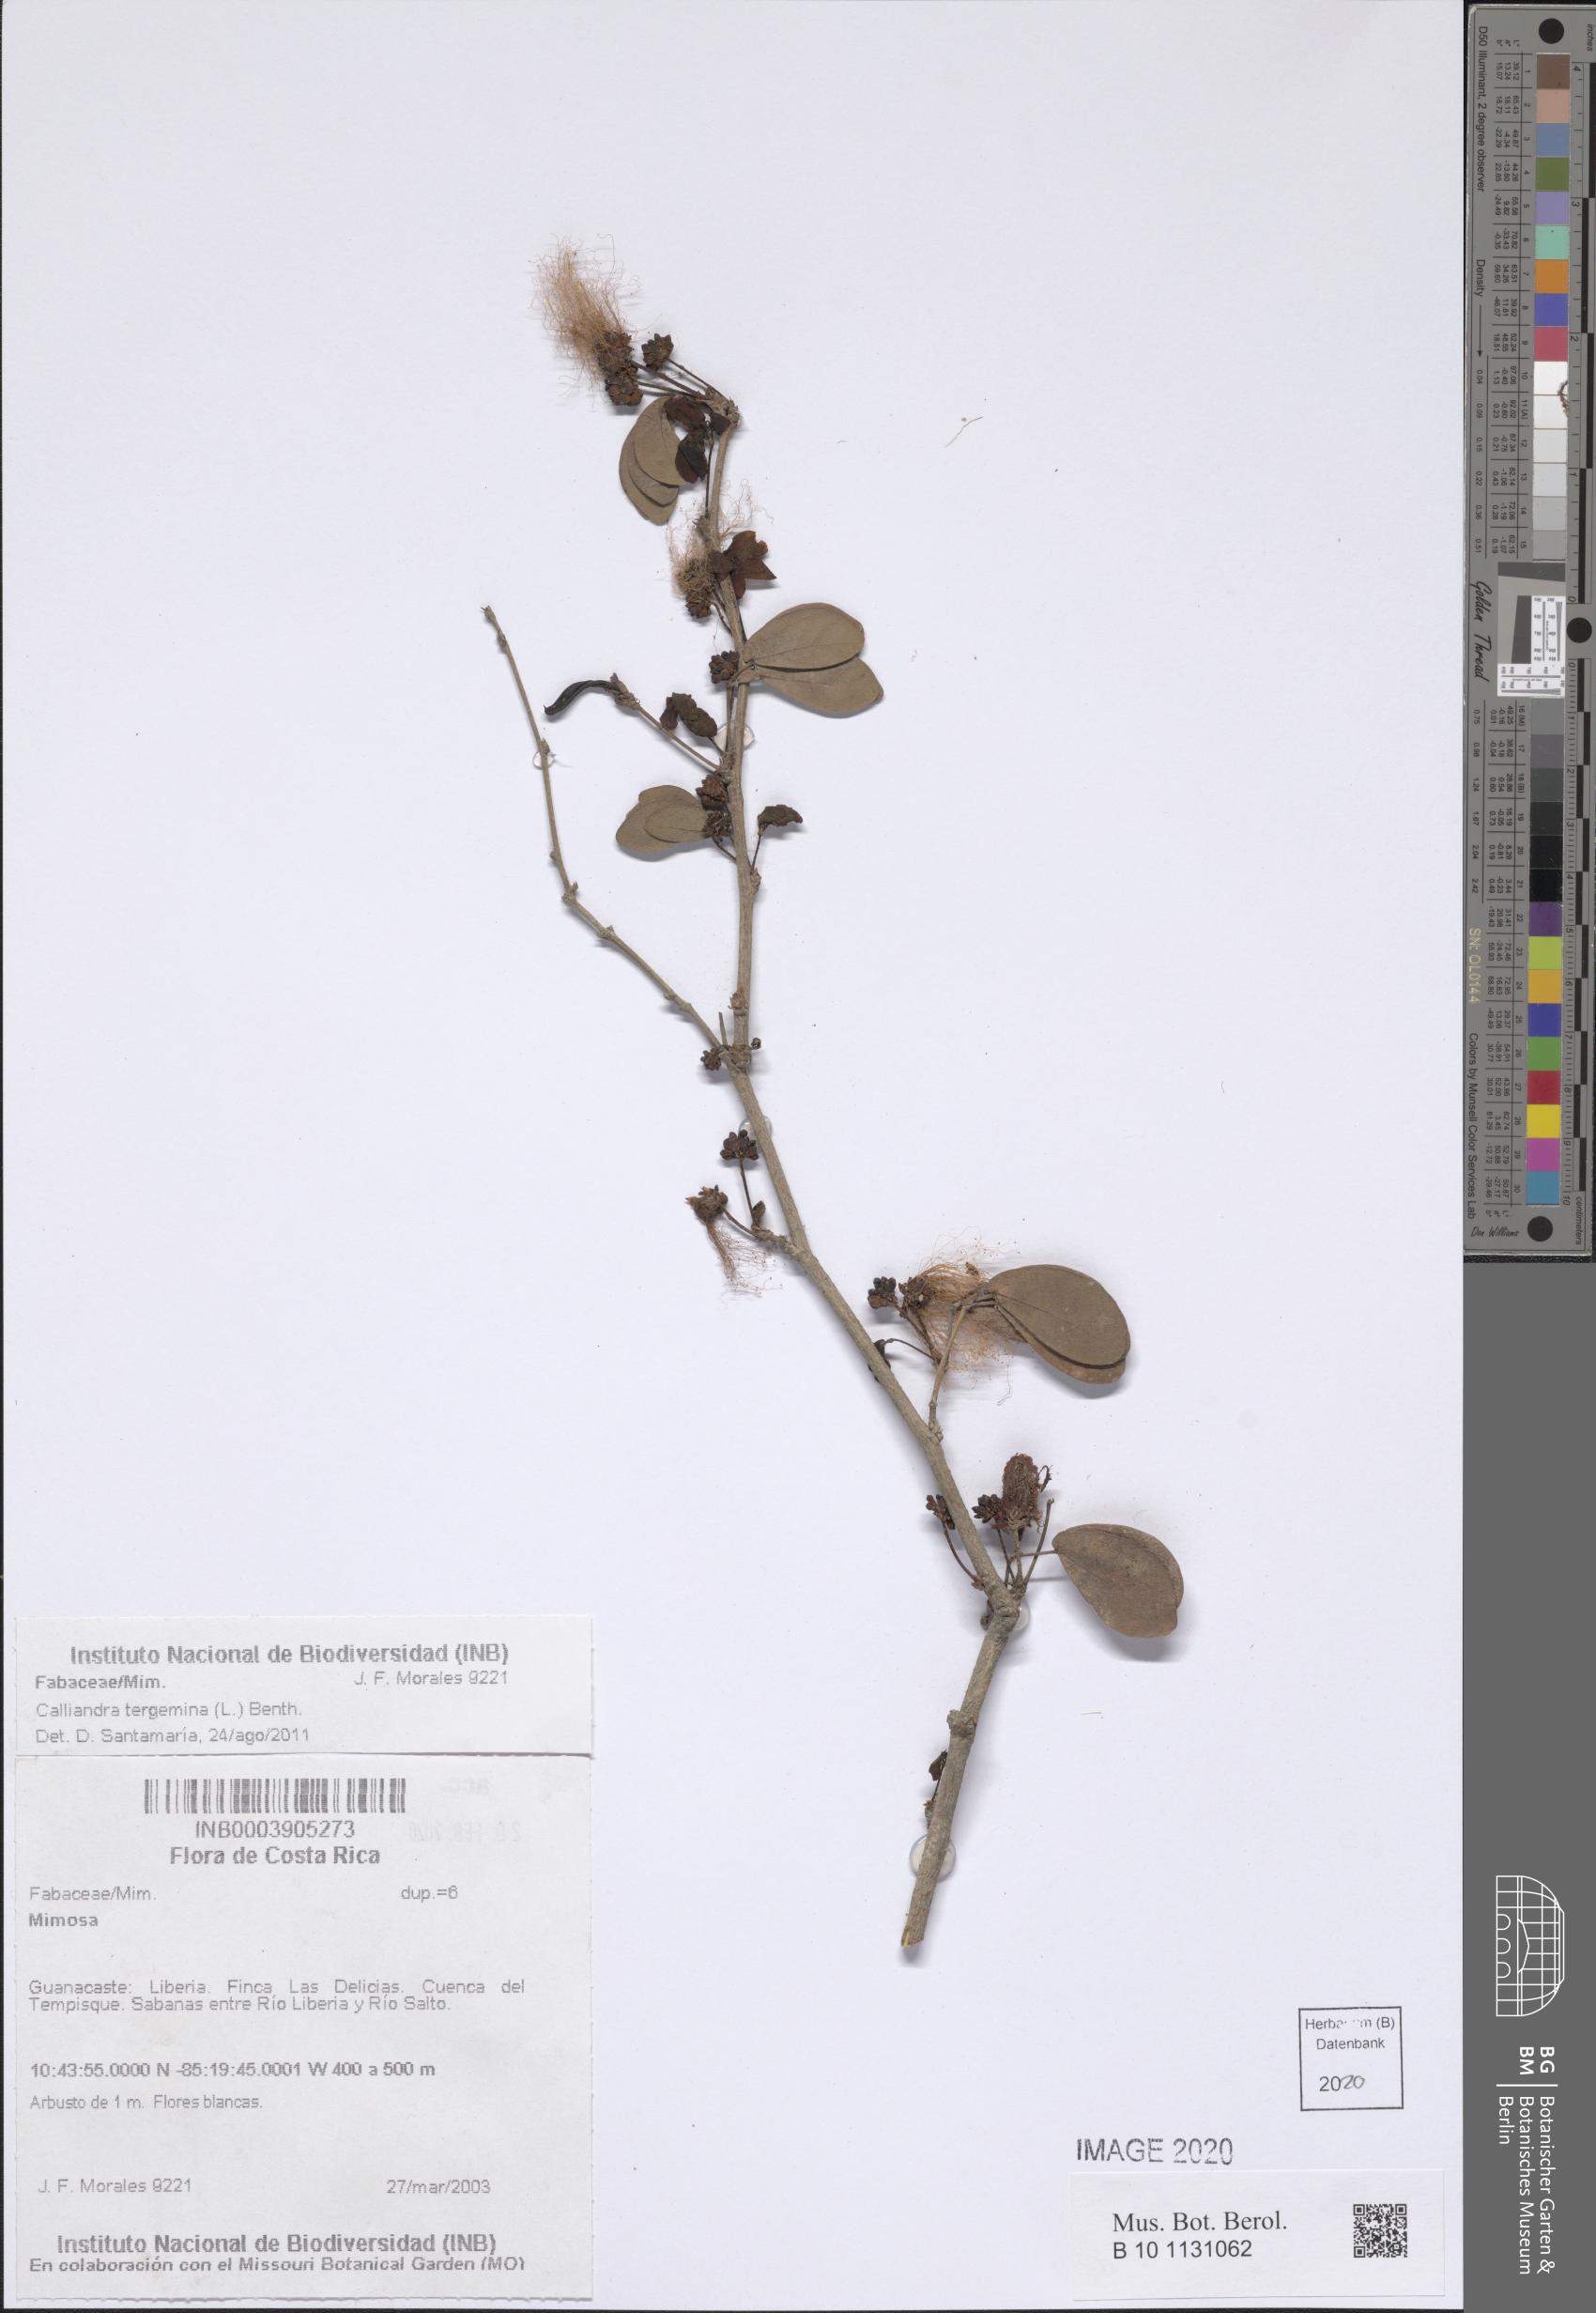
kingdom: Plantae
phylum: Tracheophyta
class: Magnoliopsida
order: Fabales
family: Fabaceae
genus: Calliandra
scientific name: Calliandra tergemina
